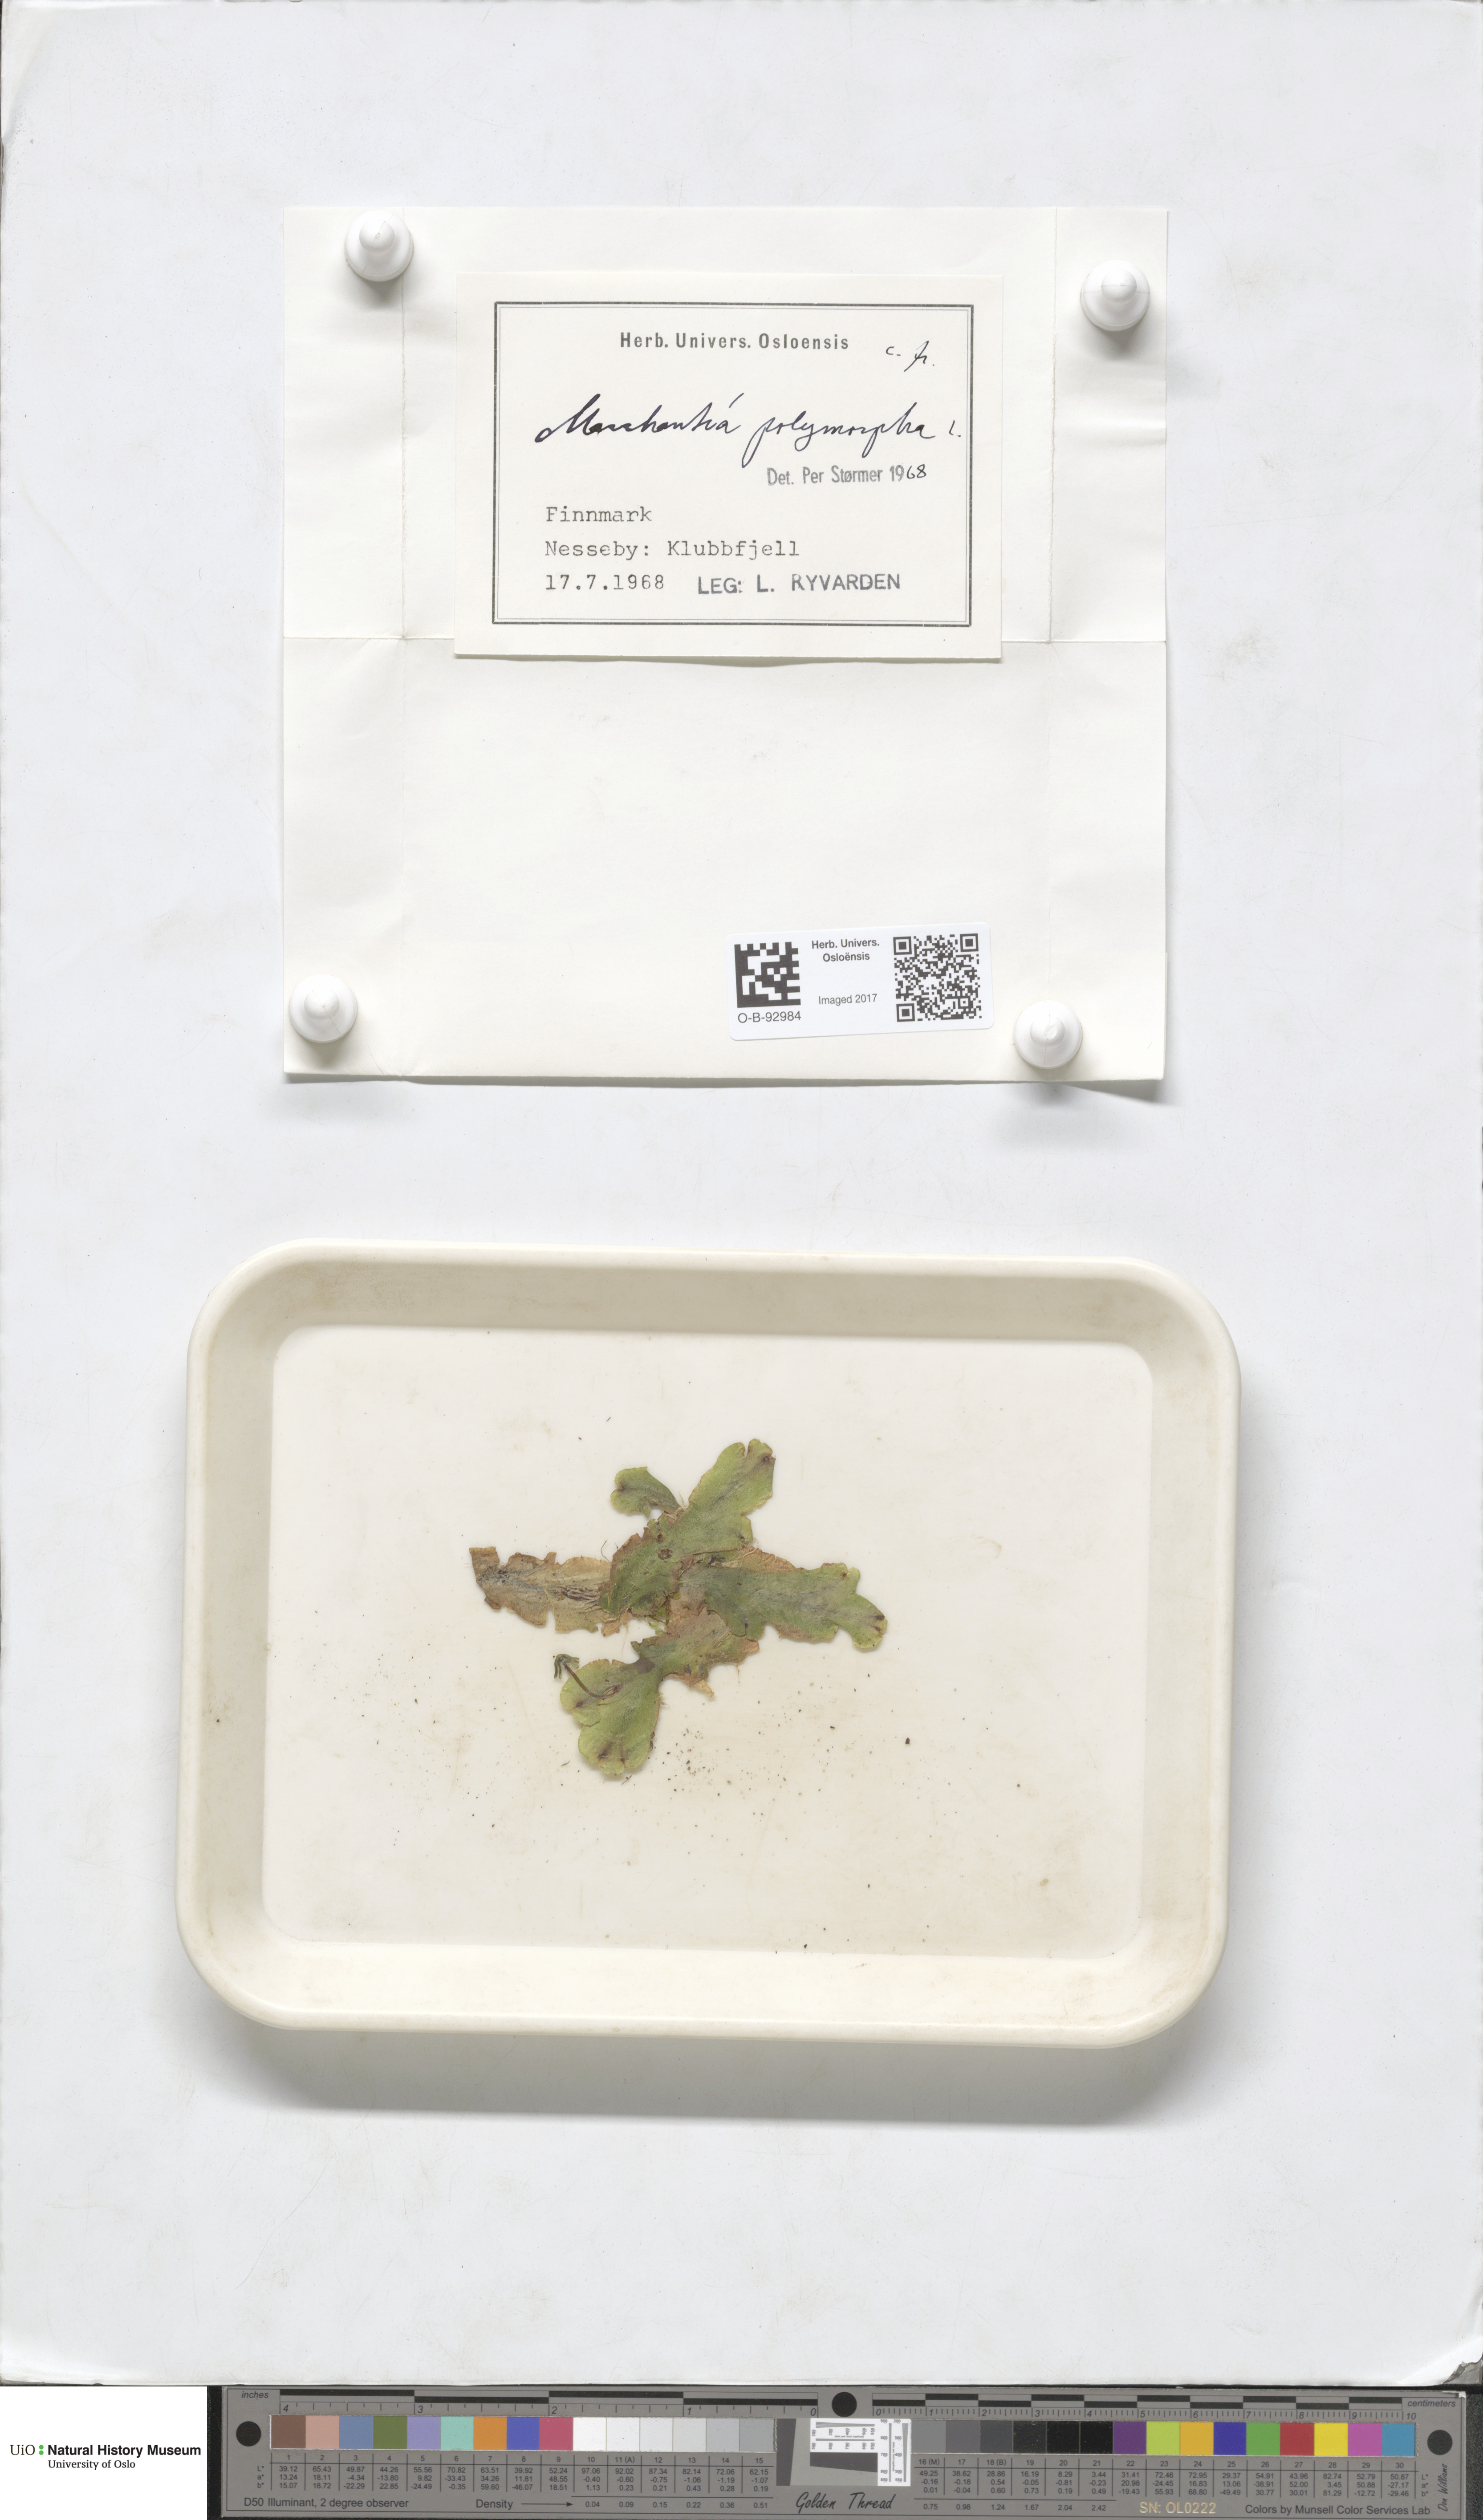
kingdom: Plantae
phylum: Marchantiophyta
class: Marchantiopsida
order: Marchantiales
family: Marchantiaceae
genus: Marchantia
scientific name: Marchantia polymorpha
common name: Common liverwort
